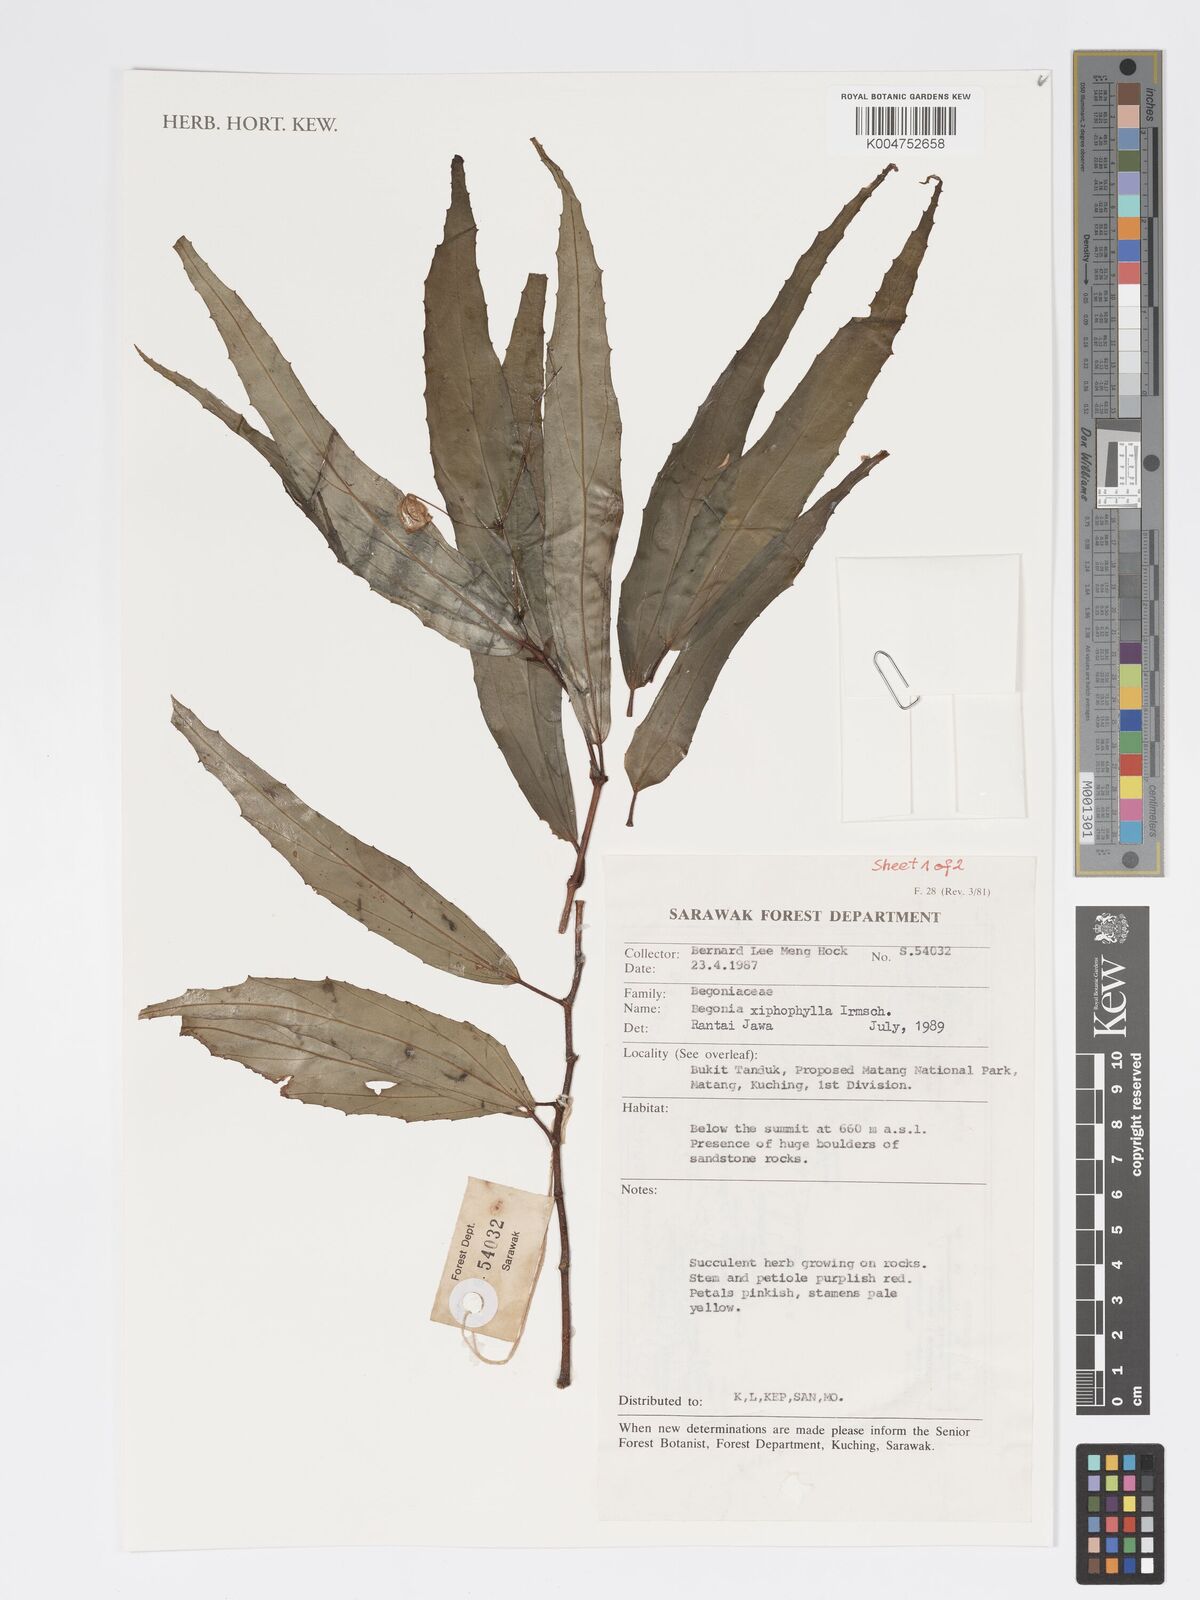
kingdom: Plantae
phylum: Tracheophyta
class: Magnoliopsida
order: Cucurbitales
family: Begoniaceae
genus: Begonia
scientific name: Begonia xiphophylla
